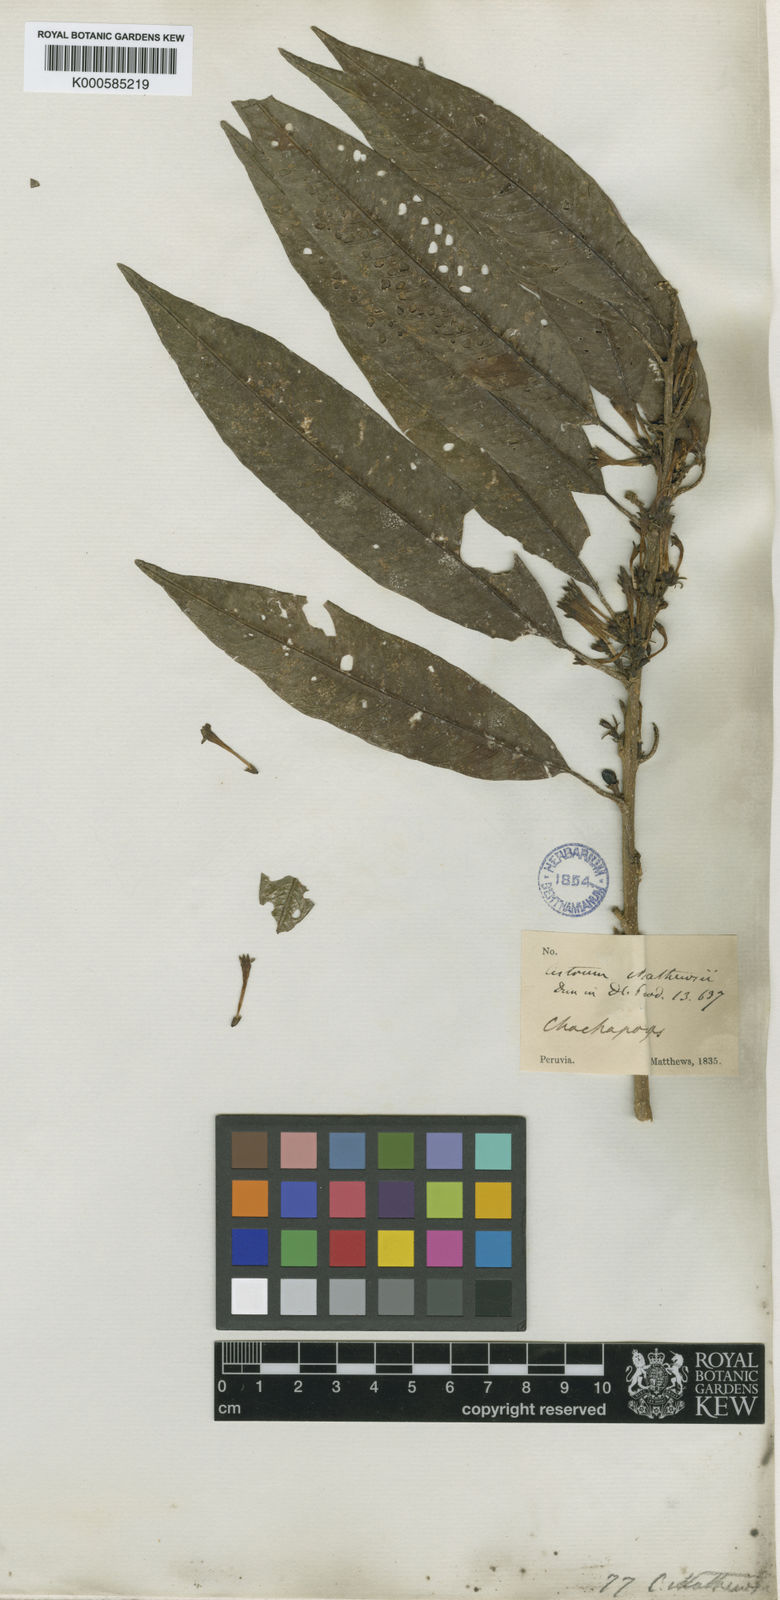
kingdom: Plantae
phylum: Tracheophyta
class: Magnoliopsida
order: Solanales
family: Solanaceae
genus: Cestrum
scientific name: Cestrum racemosum
